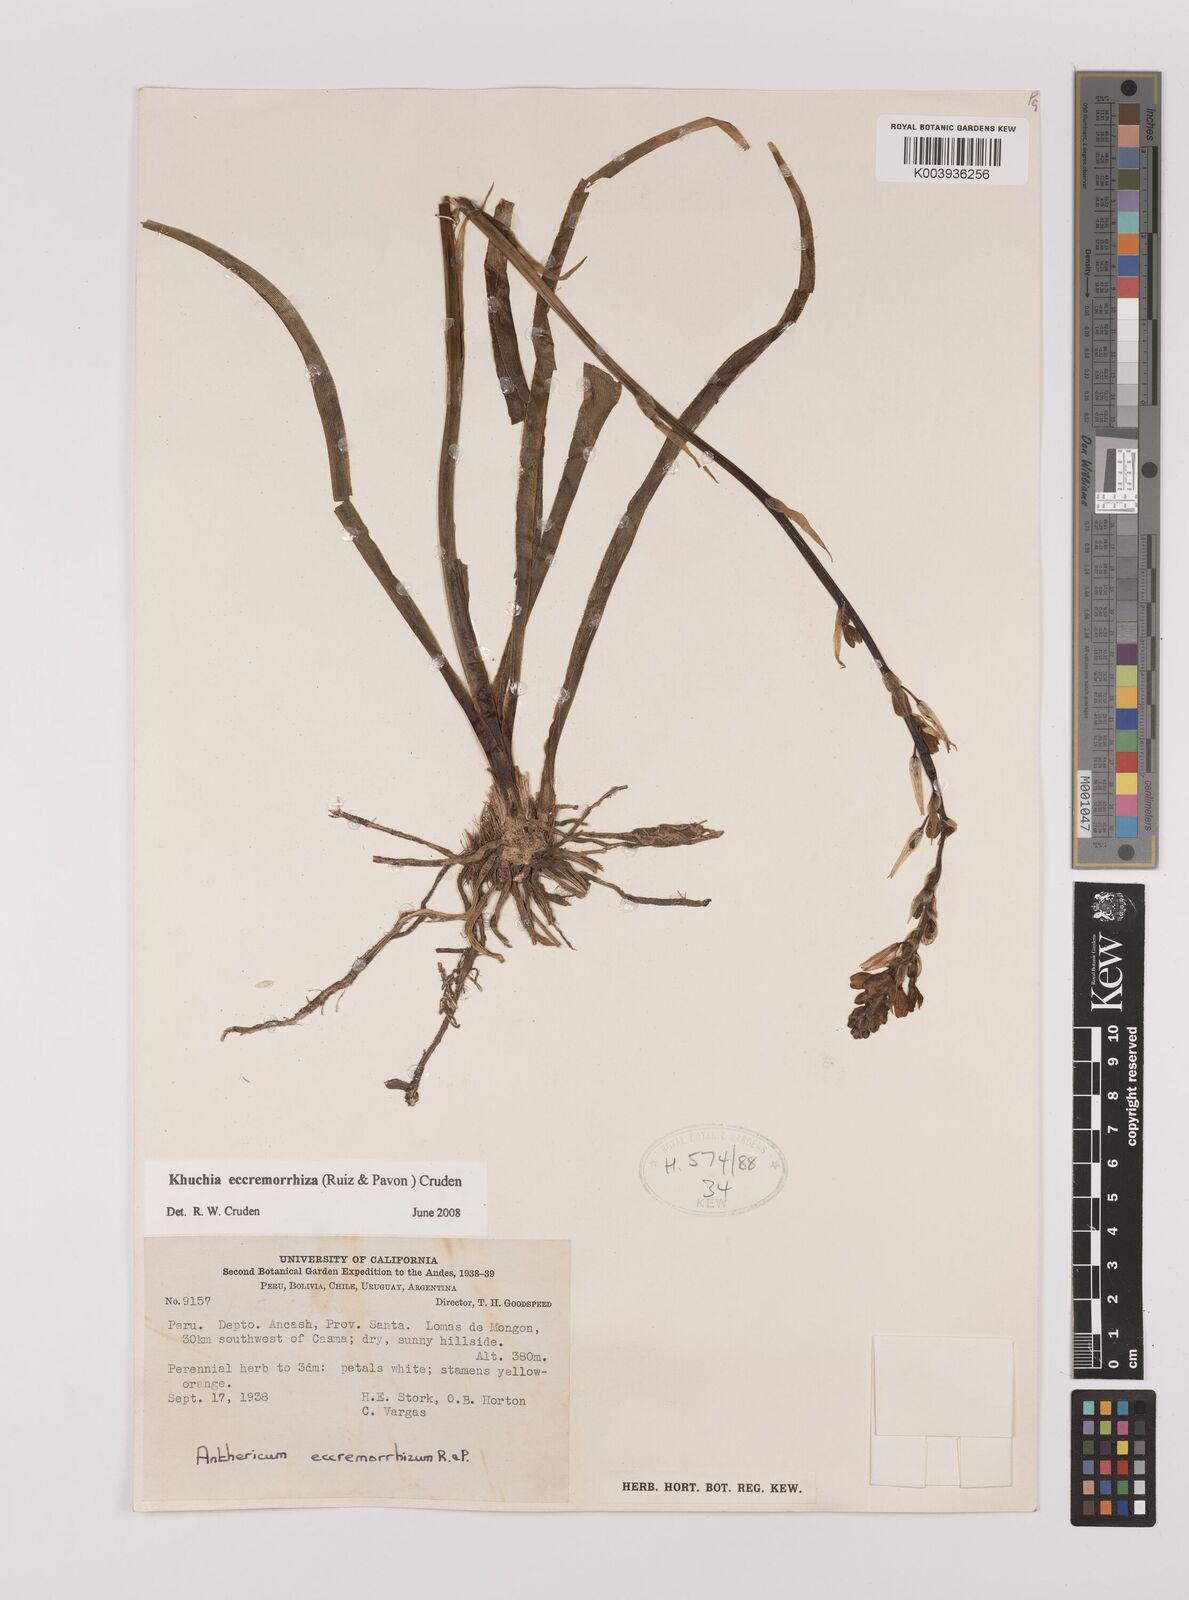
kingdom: Plantae
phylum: Tracheophyta
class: Liliopsida
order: Asparagales
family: Asparagaceae
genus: Echeandia
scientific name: Echeandia
